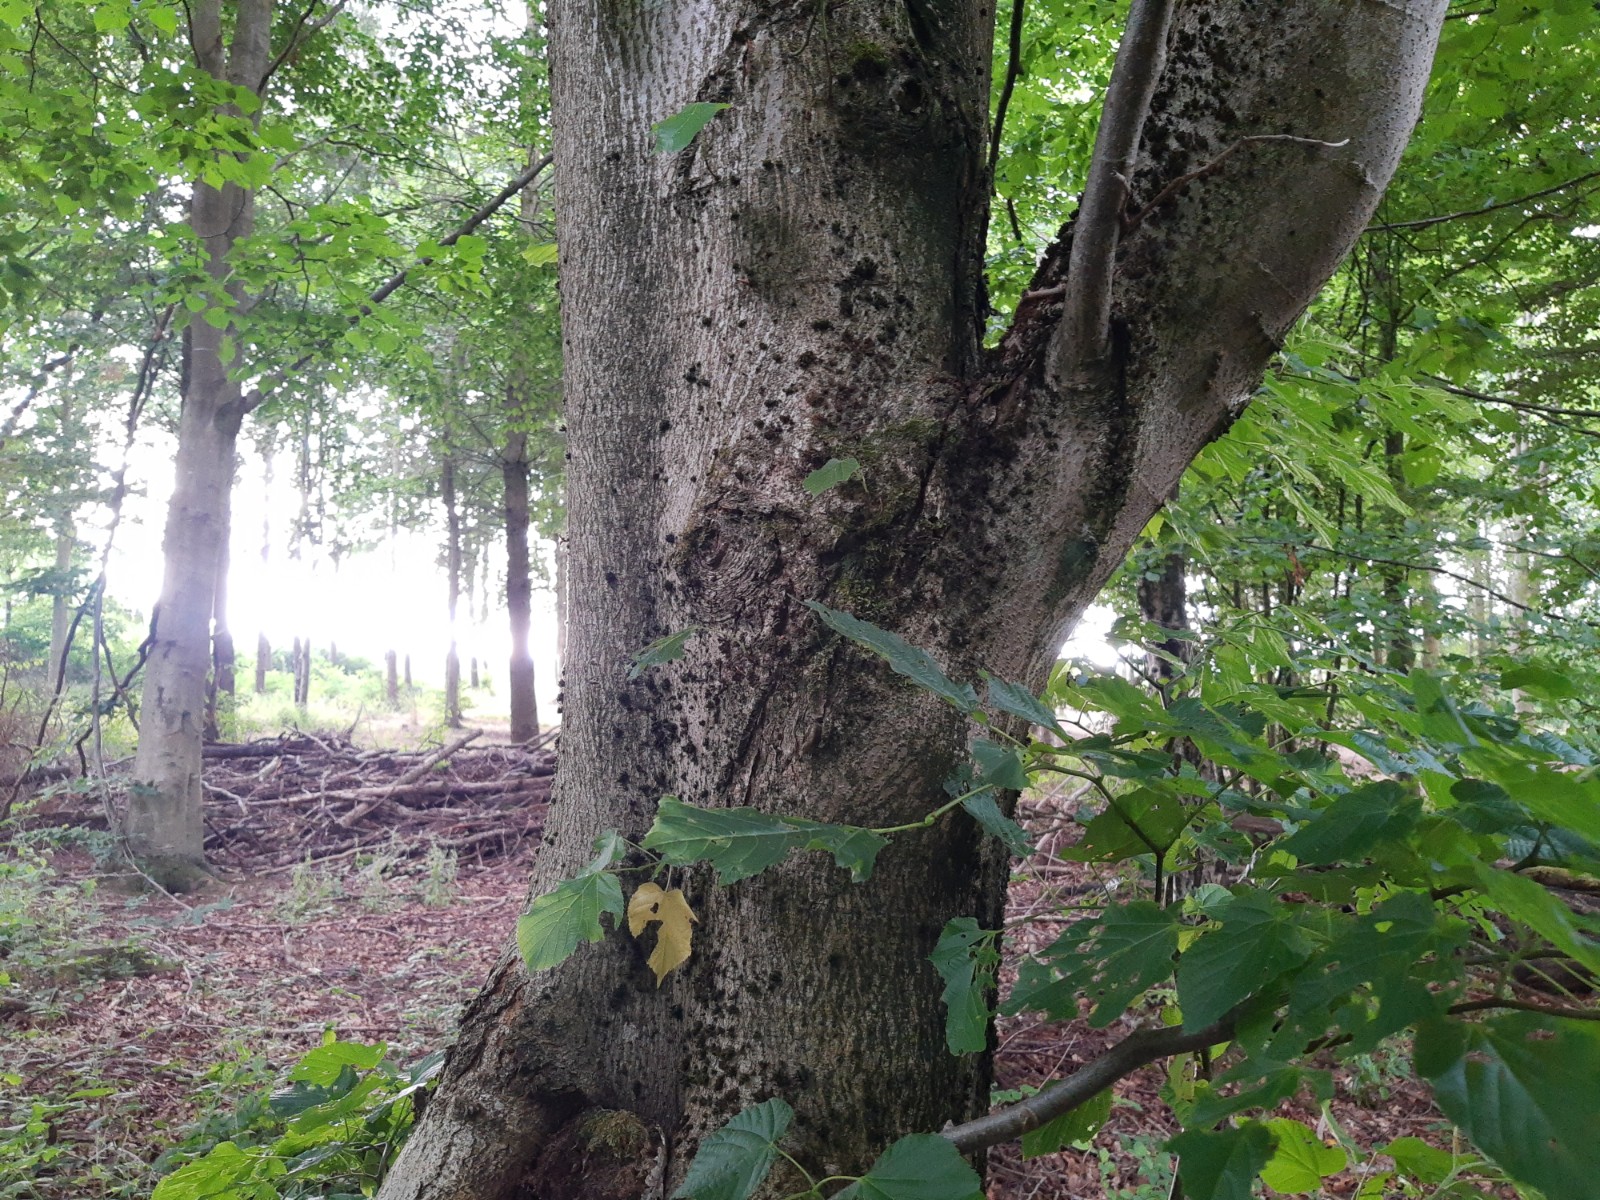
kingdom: Fungi
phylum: Basidiomycota
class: Agaricomycetes
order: Boletales
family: Boletaceae
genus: Xerocomellus
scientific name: Xerocomellus
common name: dværgrørhat
